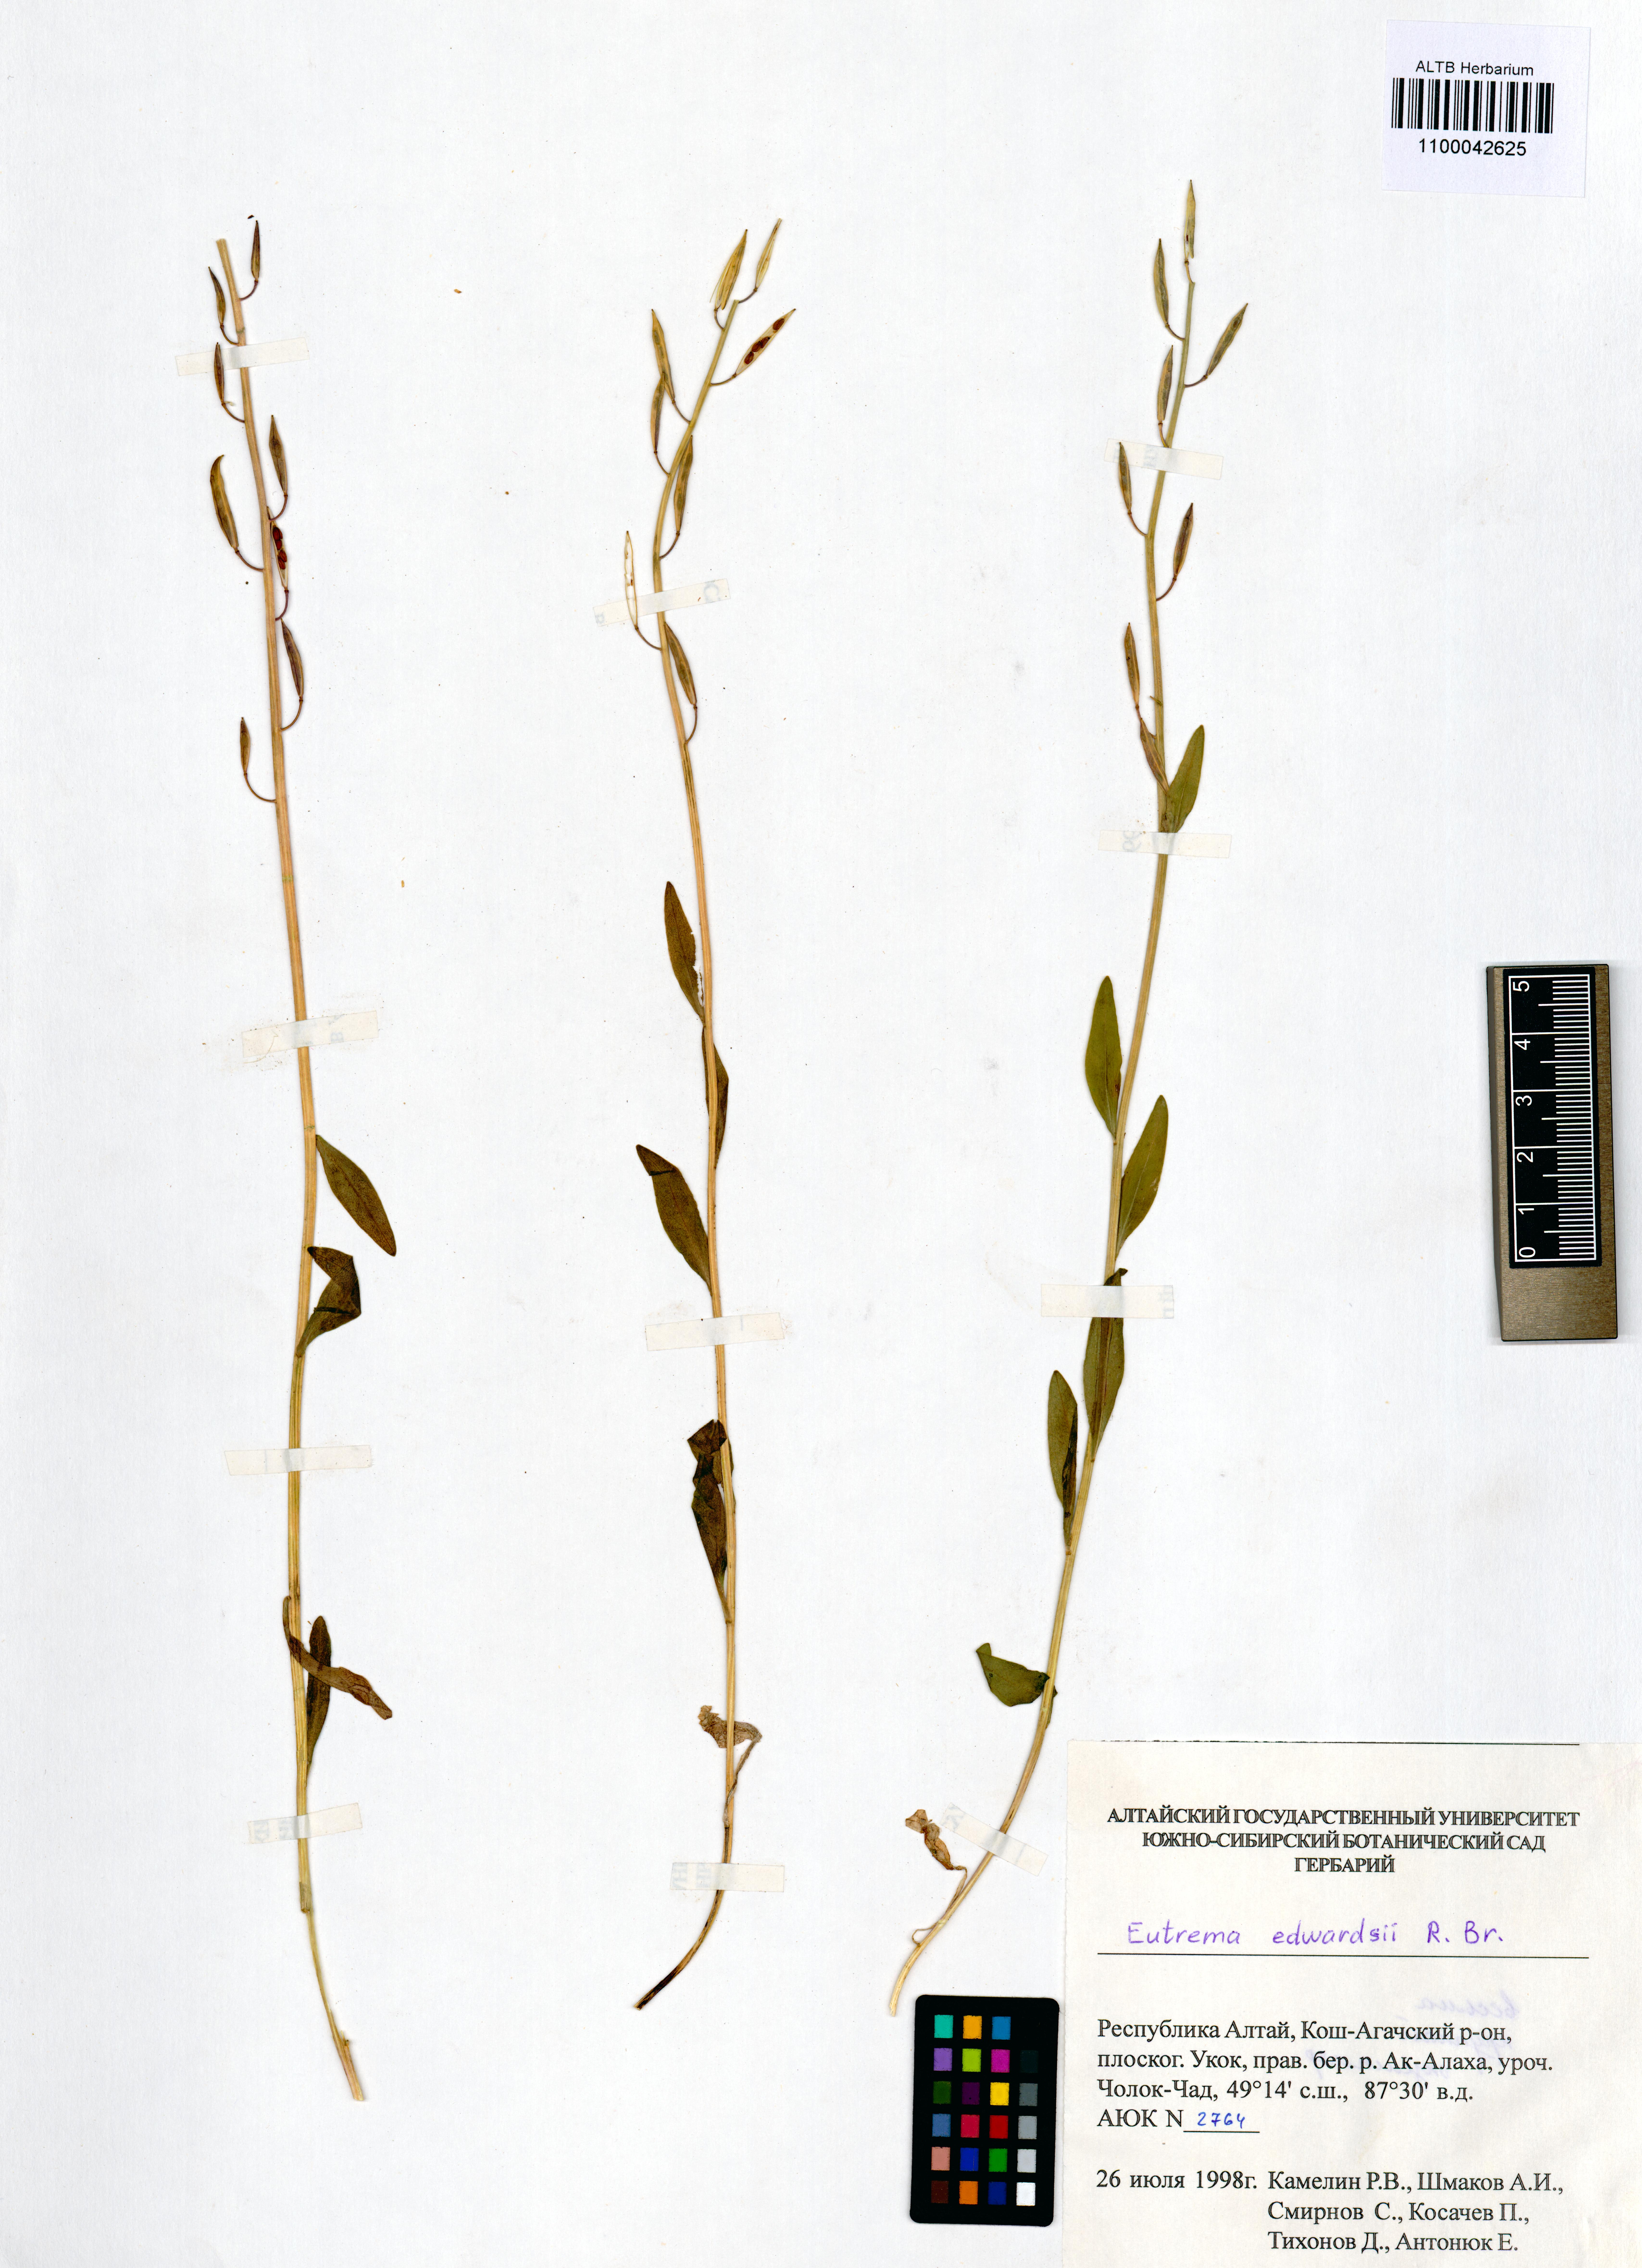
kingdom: Plantae
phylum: Tracheophyta
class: Magnoliopsida
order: Brassicales
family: Brassicaceae
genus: Eutrema
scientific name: Eutrema edwardsii
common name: Penland alpine fen mustard
